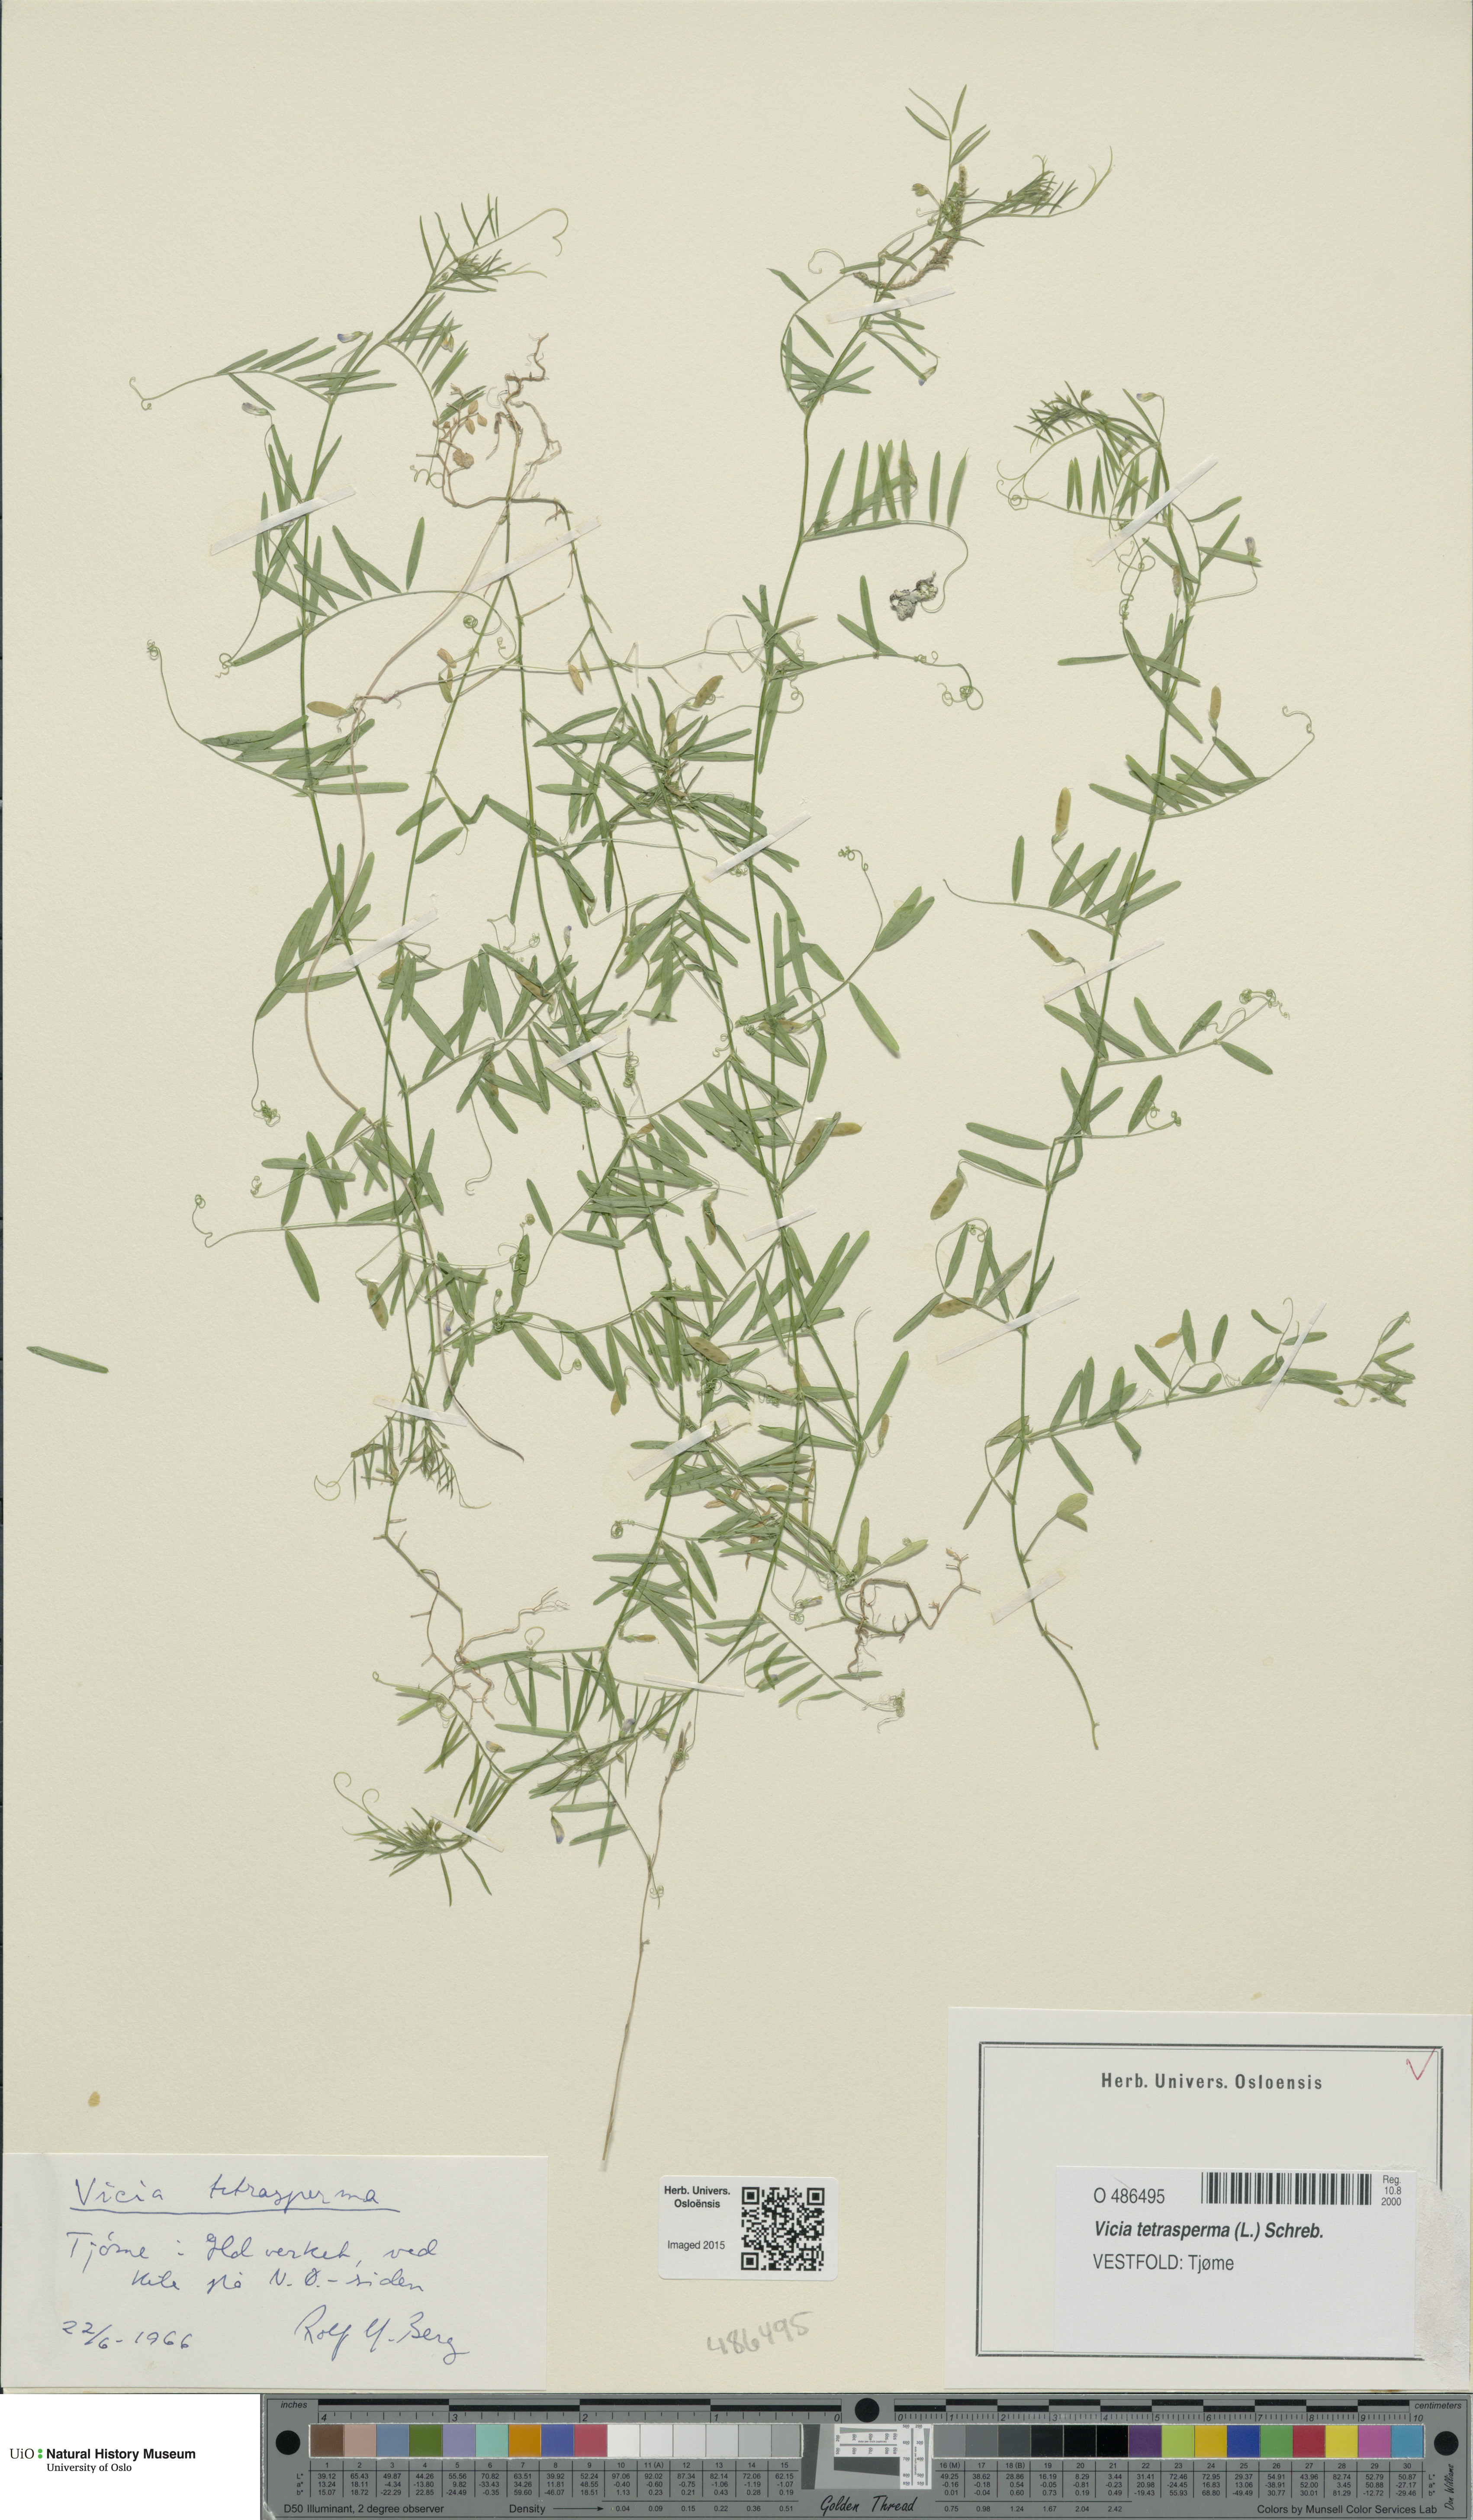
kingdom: Plantae
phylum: Tracheophyta
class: Magnoliopsida
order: Fabales
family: Fabaceae
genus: Vicia
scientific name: Vicia tetrasperma
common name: Smooth tare
